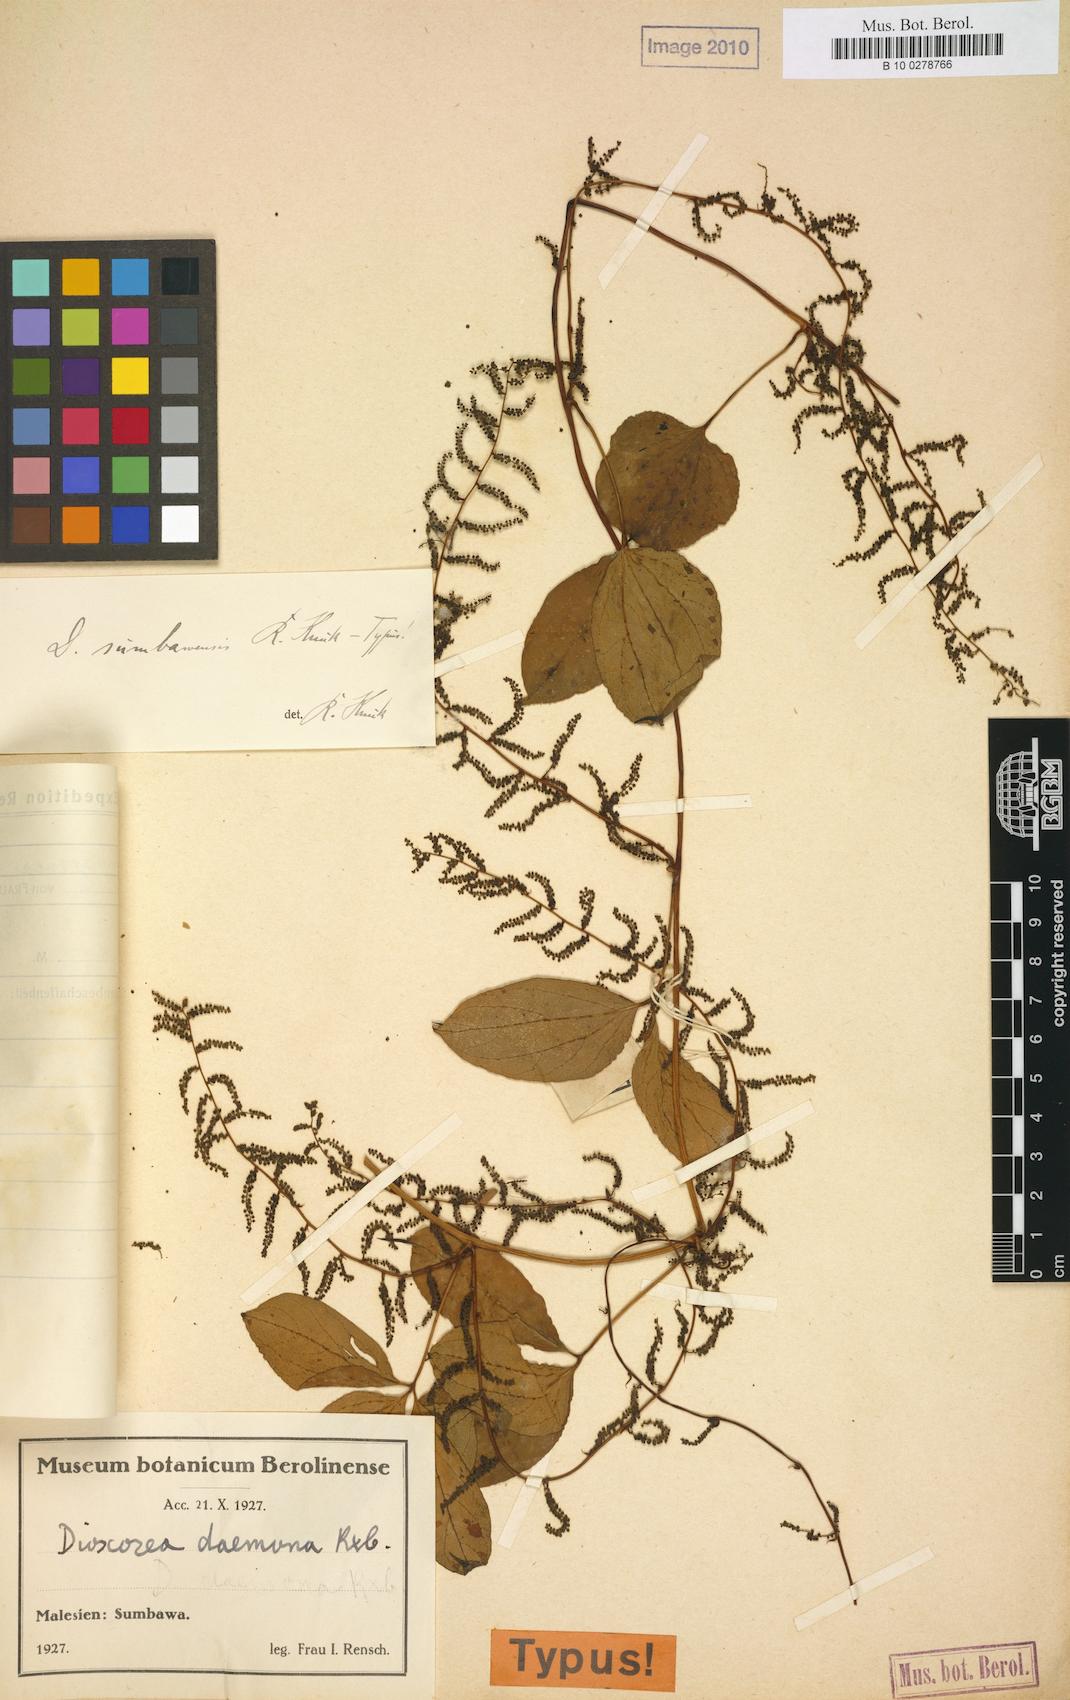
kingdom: Plantae
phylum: Tracheophyta
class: Liliopsida
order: Dioscoreales
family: Dioscoreaceae
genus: Dioscorea
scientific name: Dioscorea pentaphylla
